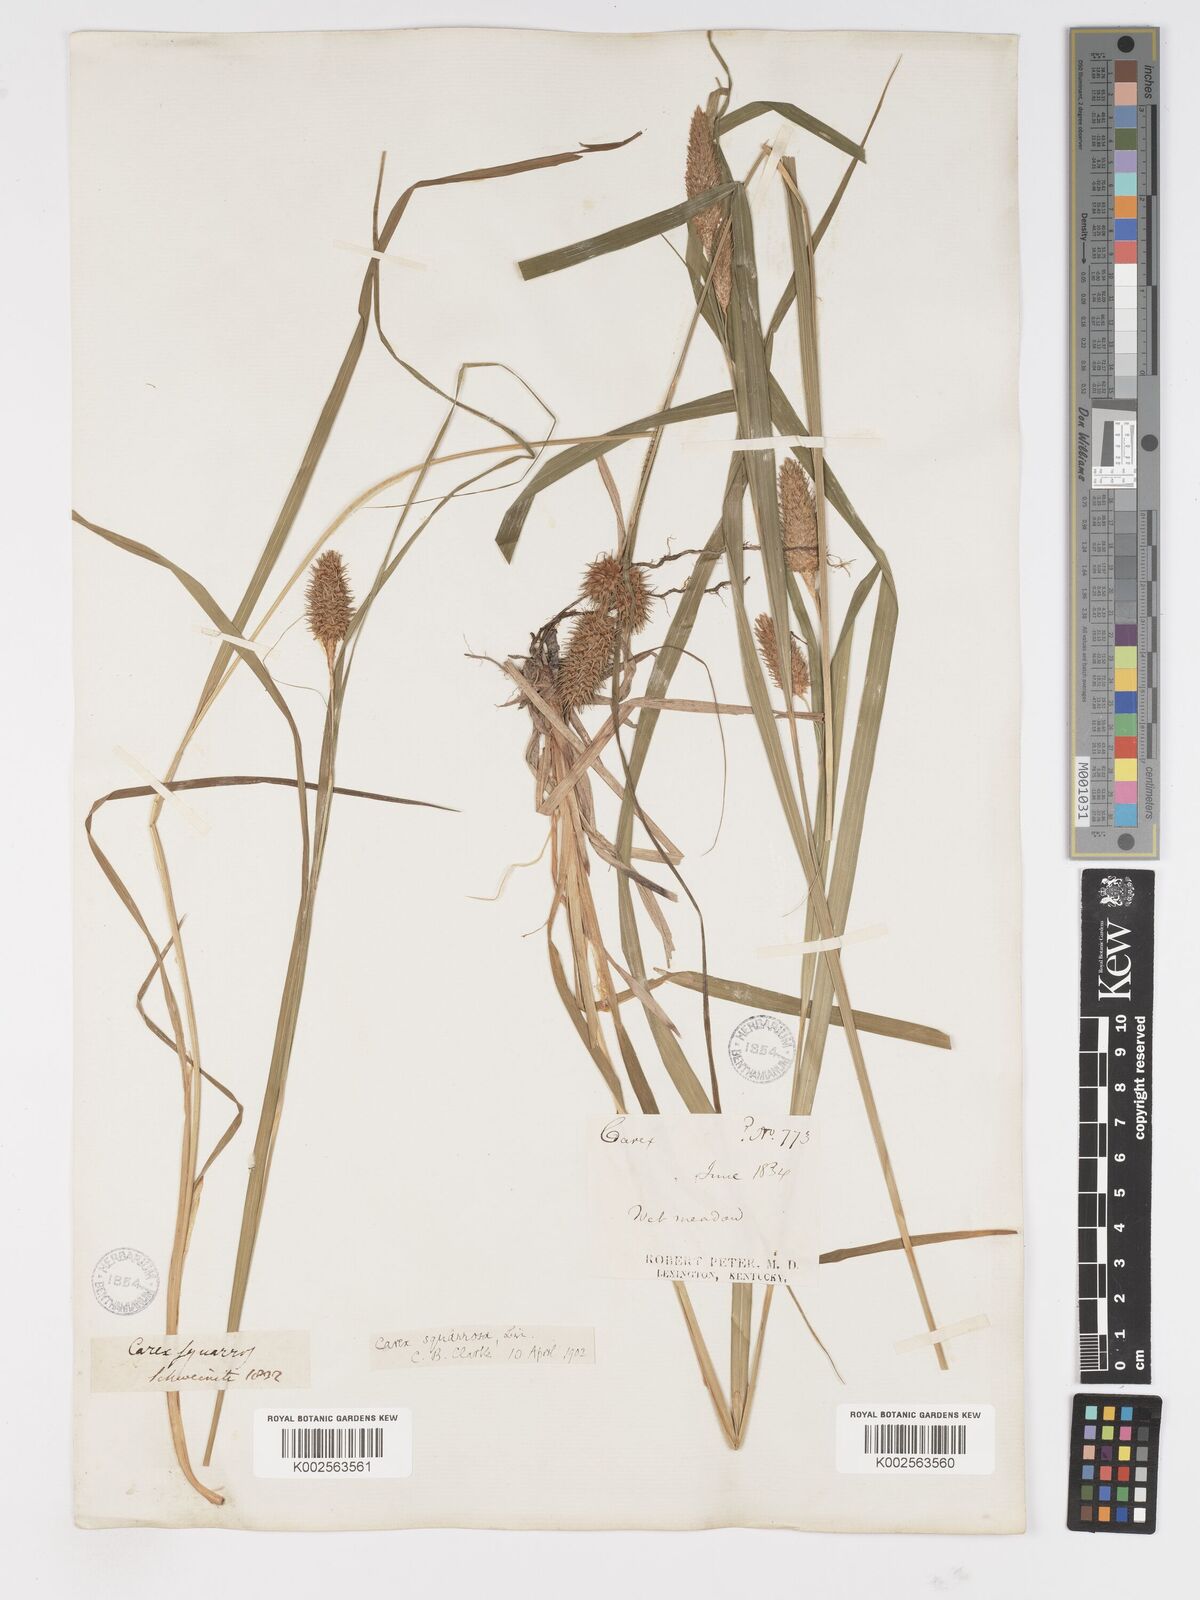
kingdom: Plantae
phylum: Tracheophyta
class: Liliopsida
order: Poales
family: Cyperaceae
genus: Carex
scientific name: Carex squarrosa
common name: Narrow-leaved cattail sedge
